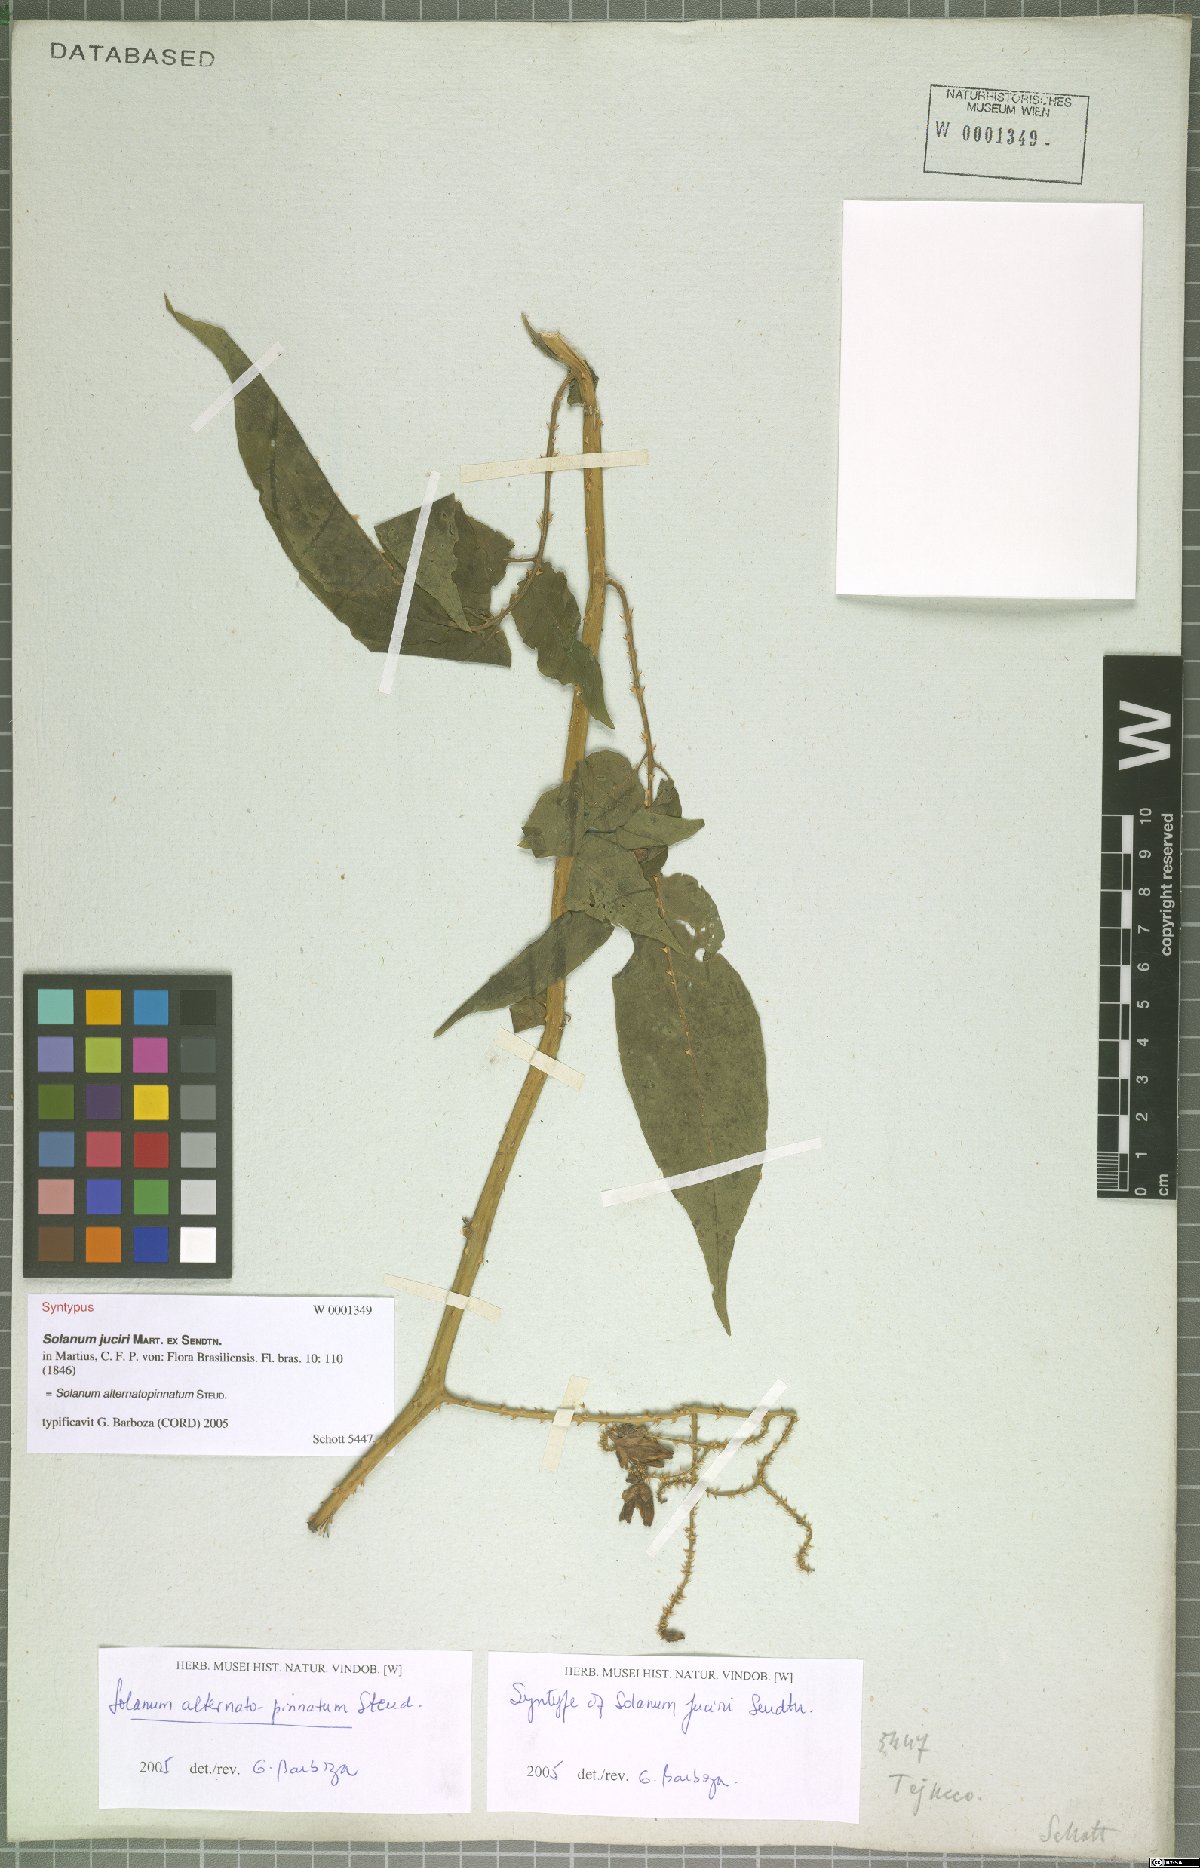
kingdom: Plantae
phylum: Tracheophyta
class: Magnoliopsida
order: Solanales
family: Solanaceae
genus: Solanum
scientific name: Solanum alternatopinnatum
